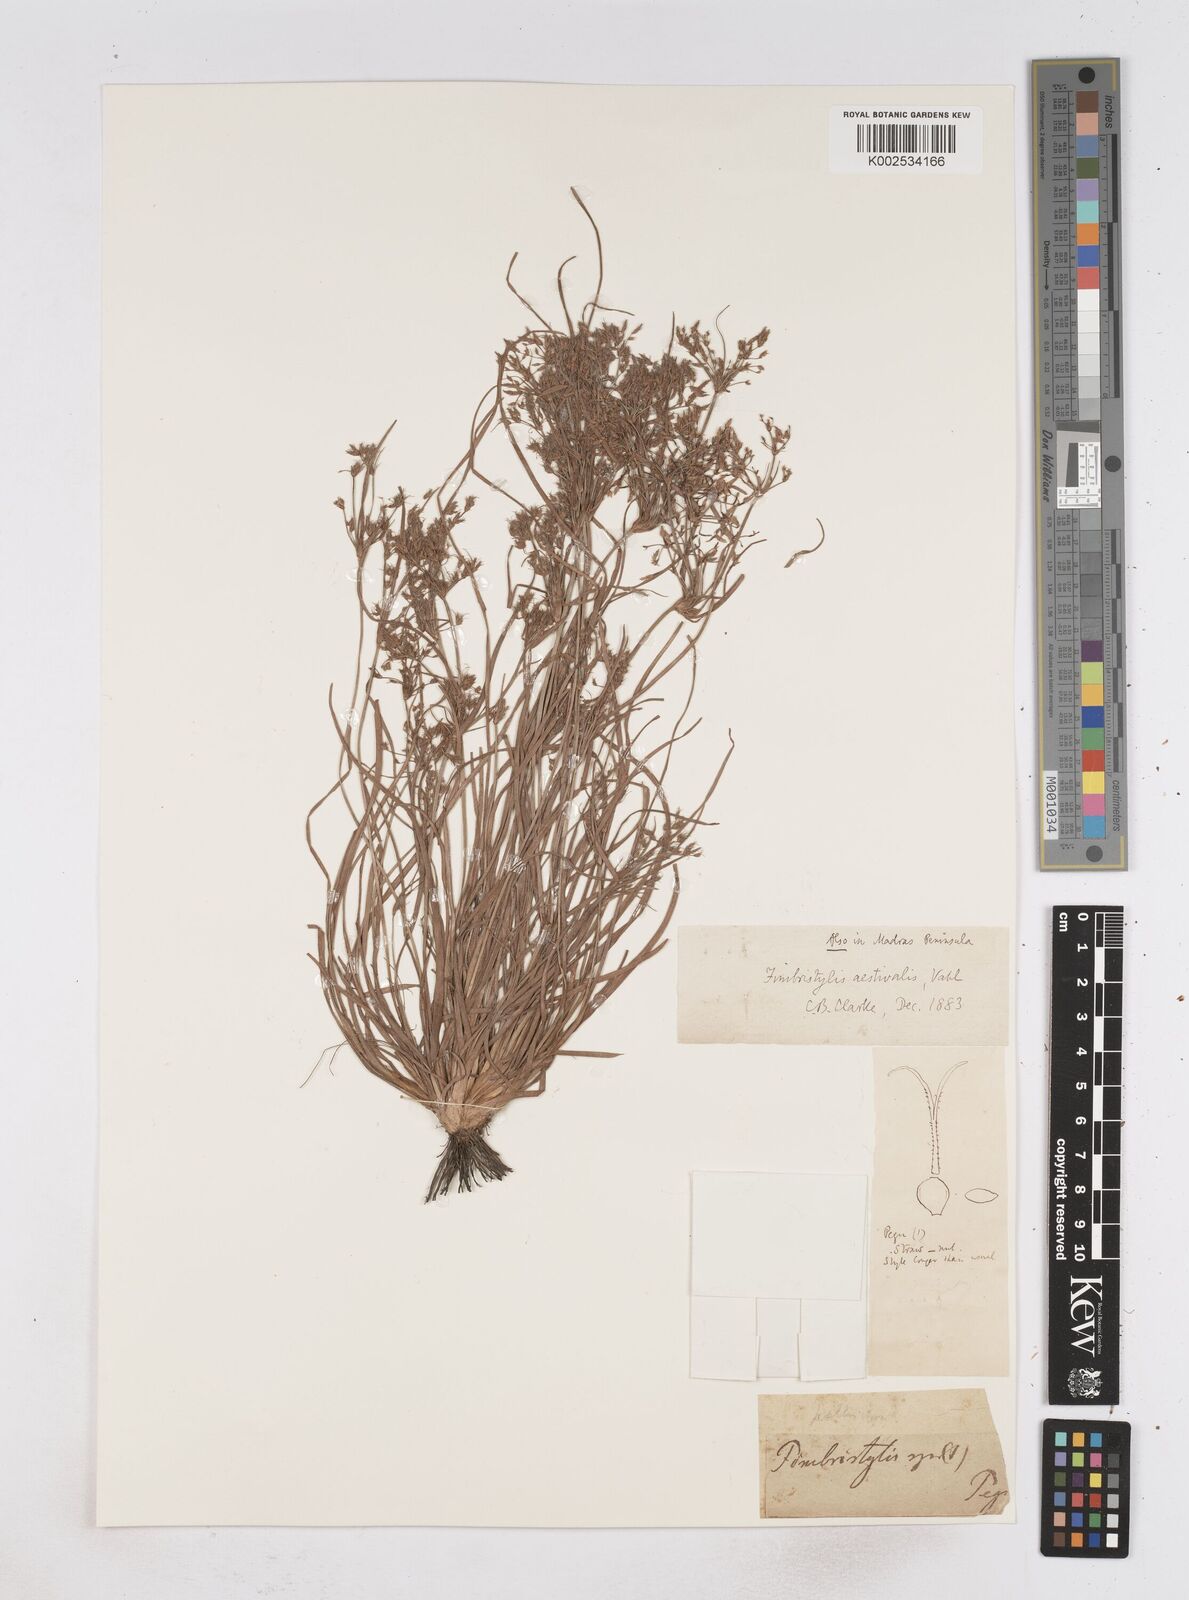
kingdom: Plantae
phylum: Tracheophyta
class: Liliopsida
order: Poales
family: Cyperaceae
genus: Fimbristylis
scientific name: Fimbristylis aestivalis
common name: Summer fimbry
